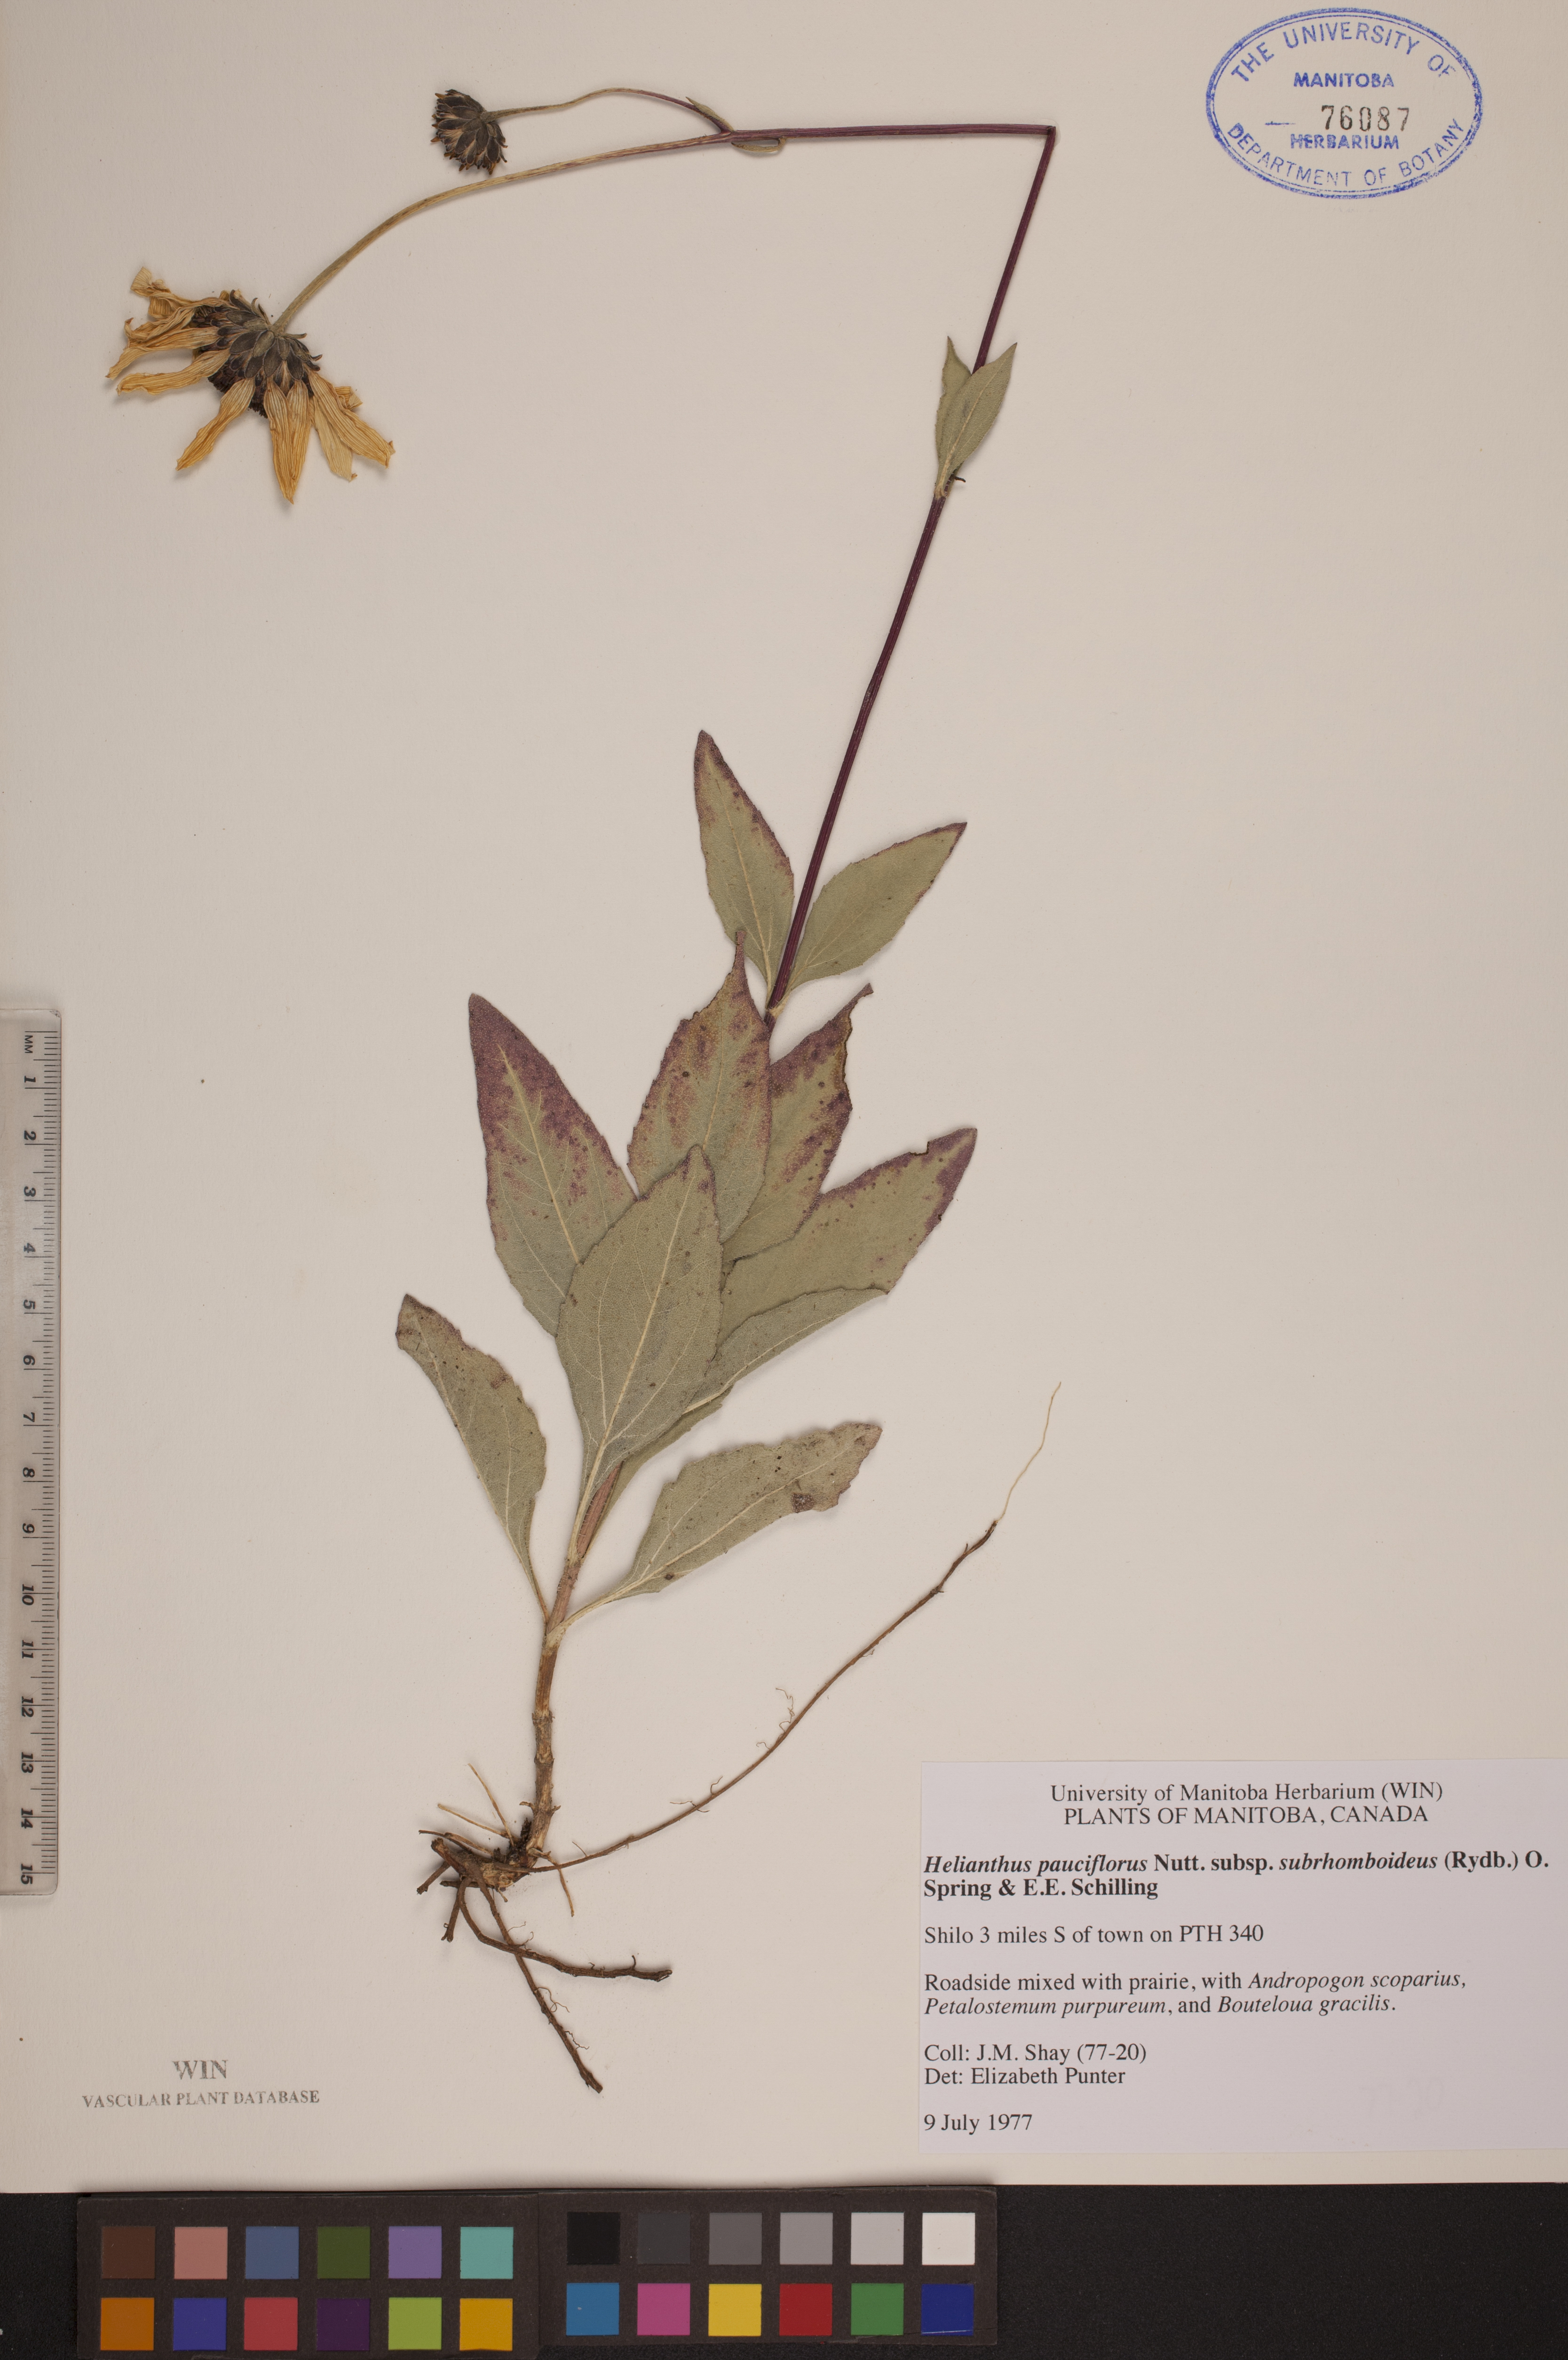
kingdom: Plantae
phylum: Tracheophyta
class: Magnoliopsida
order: Asterales
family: Asteraceae
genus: Helianthus
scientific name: Helianthus pauciflorus
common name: Stiff sunflower
